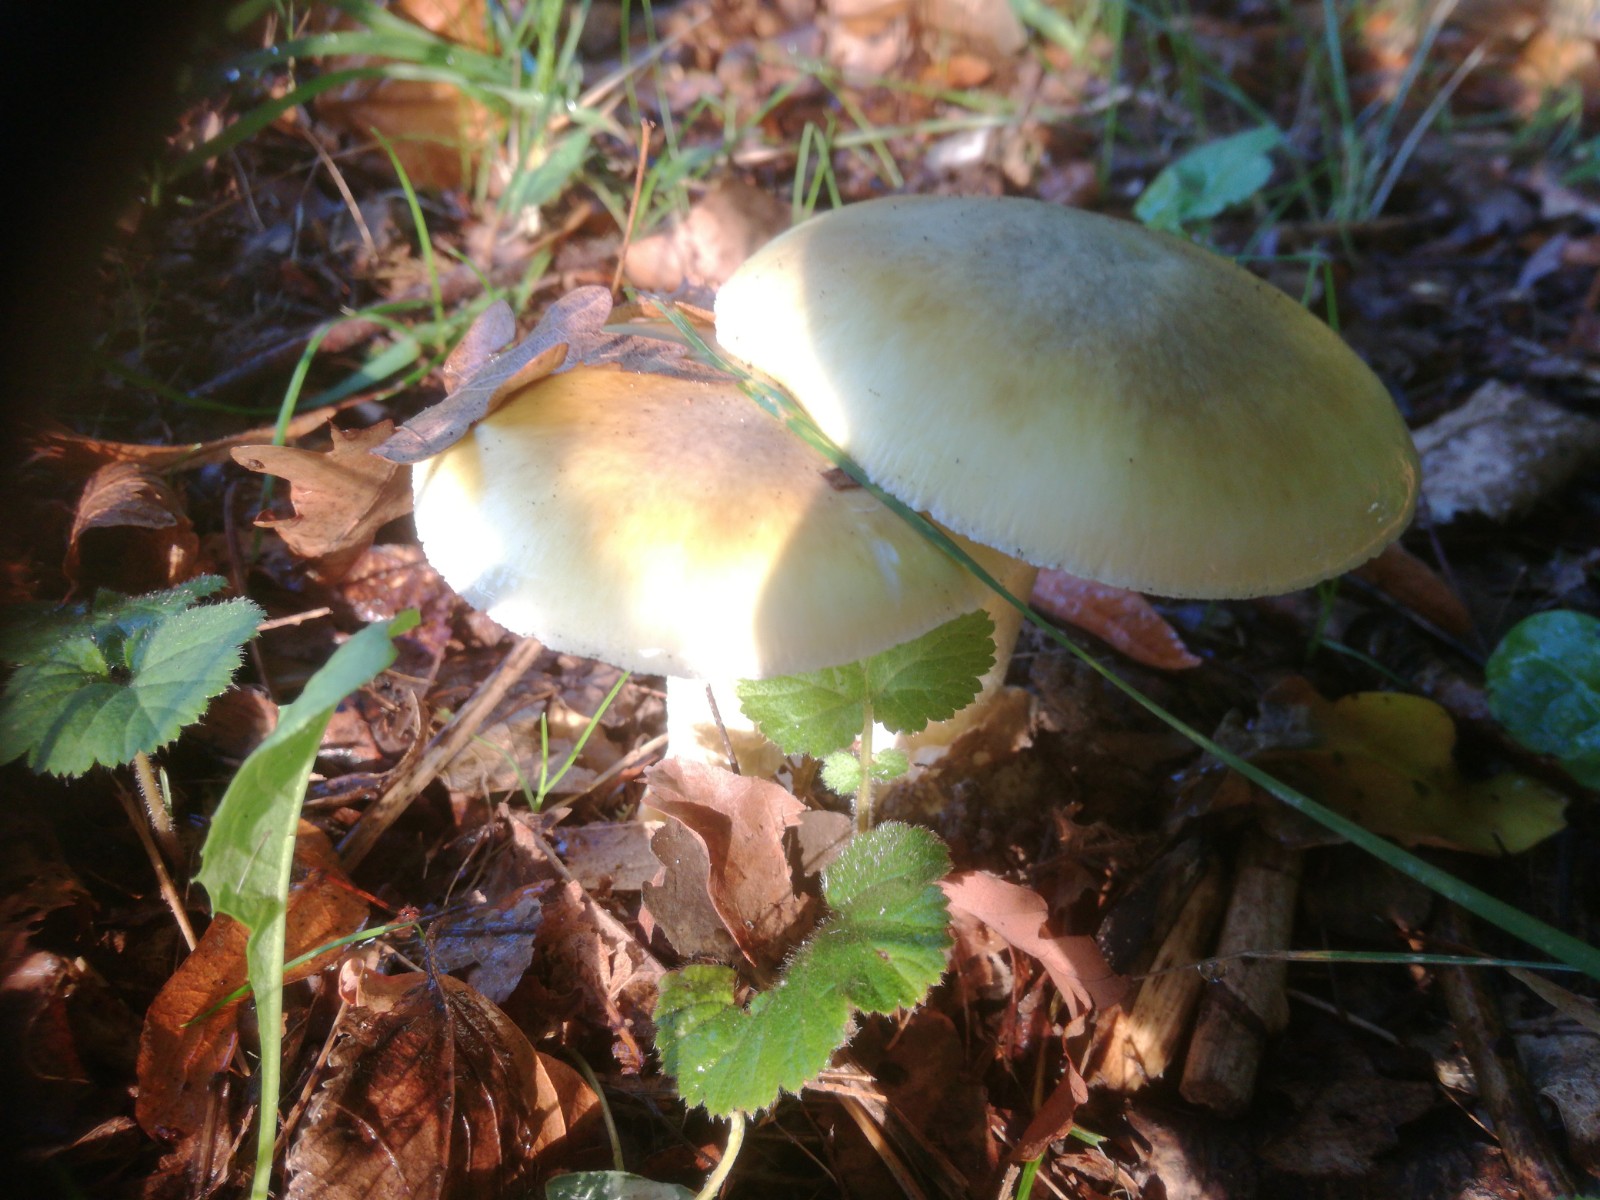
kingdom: Fungi
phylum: Basidiomycota
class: Agaricomycetes
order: Agaricales
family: Amanitaceae
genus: Amanita
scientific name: Amanita phalloides
